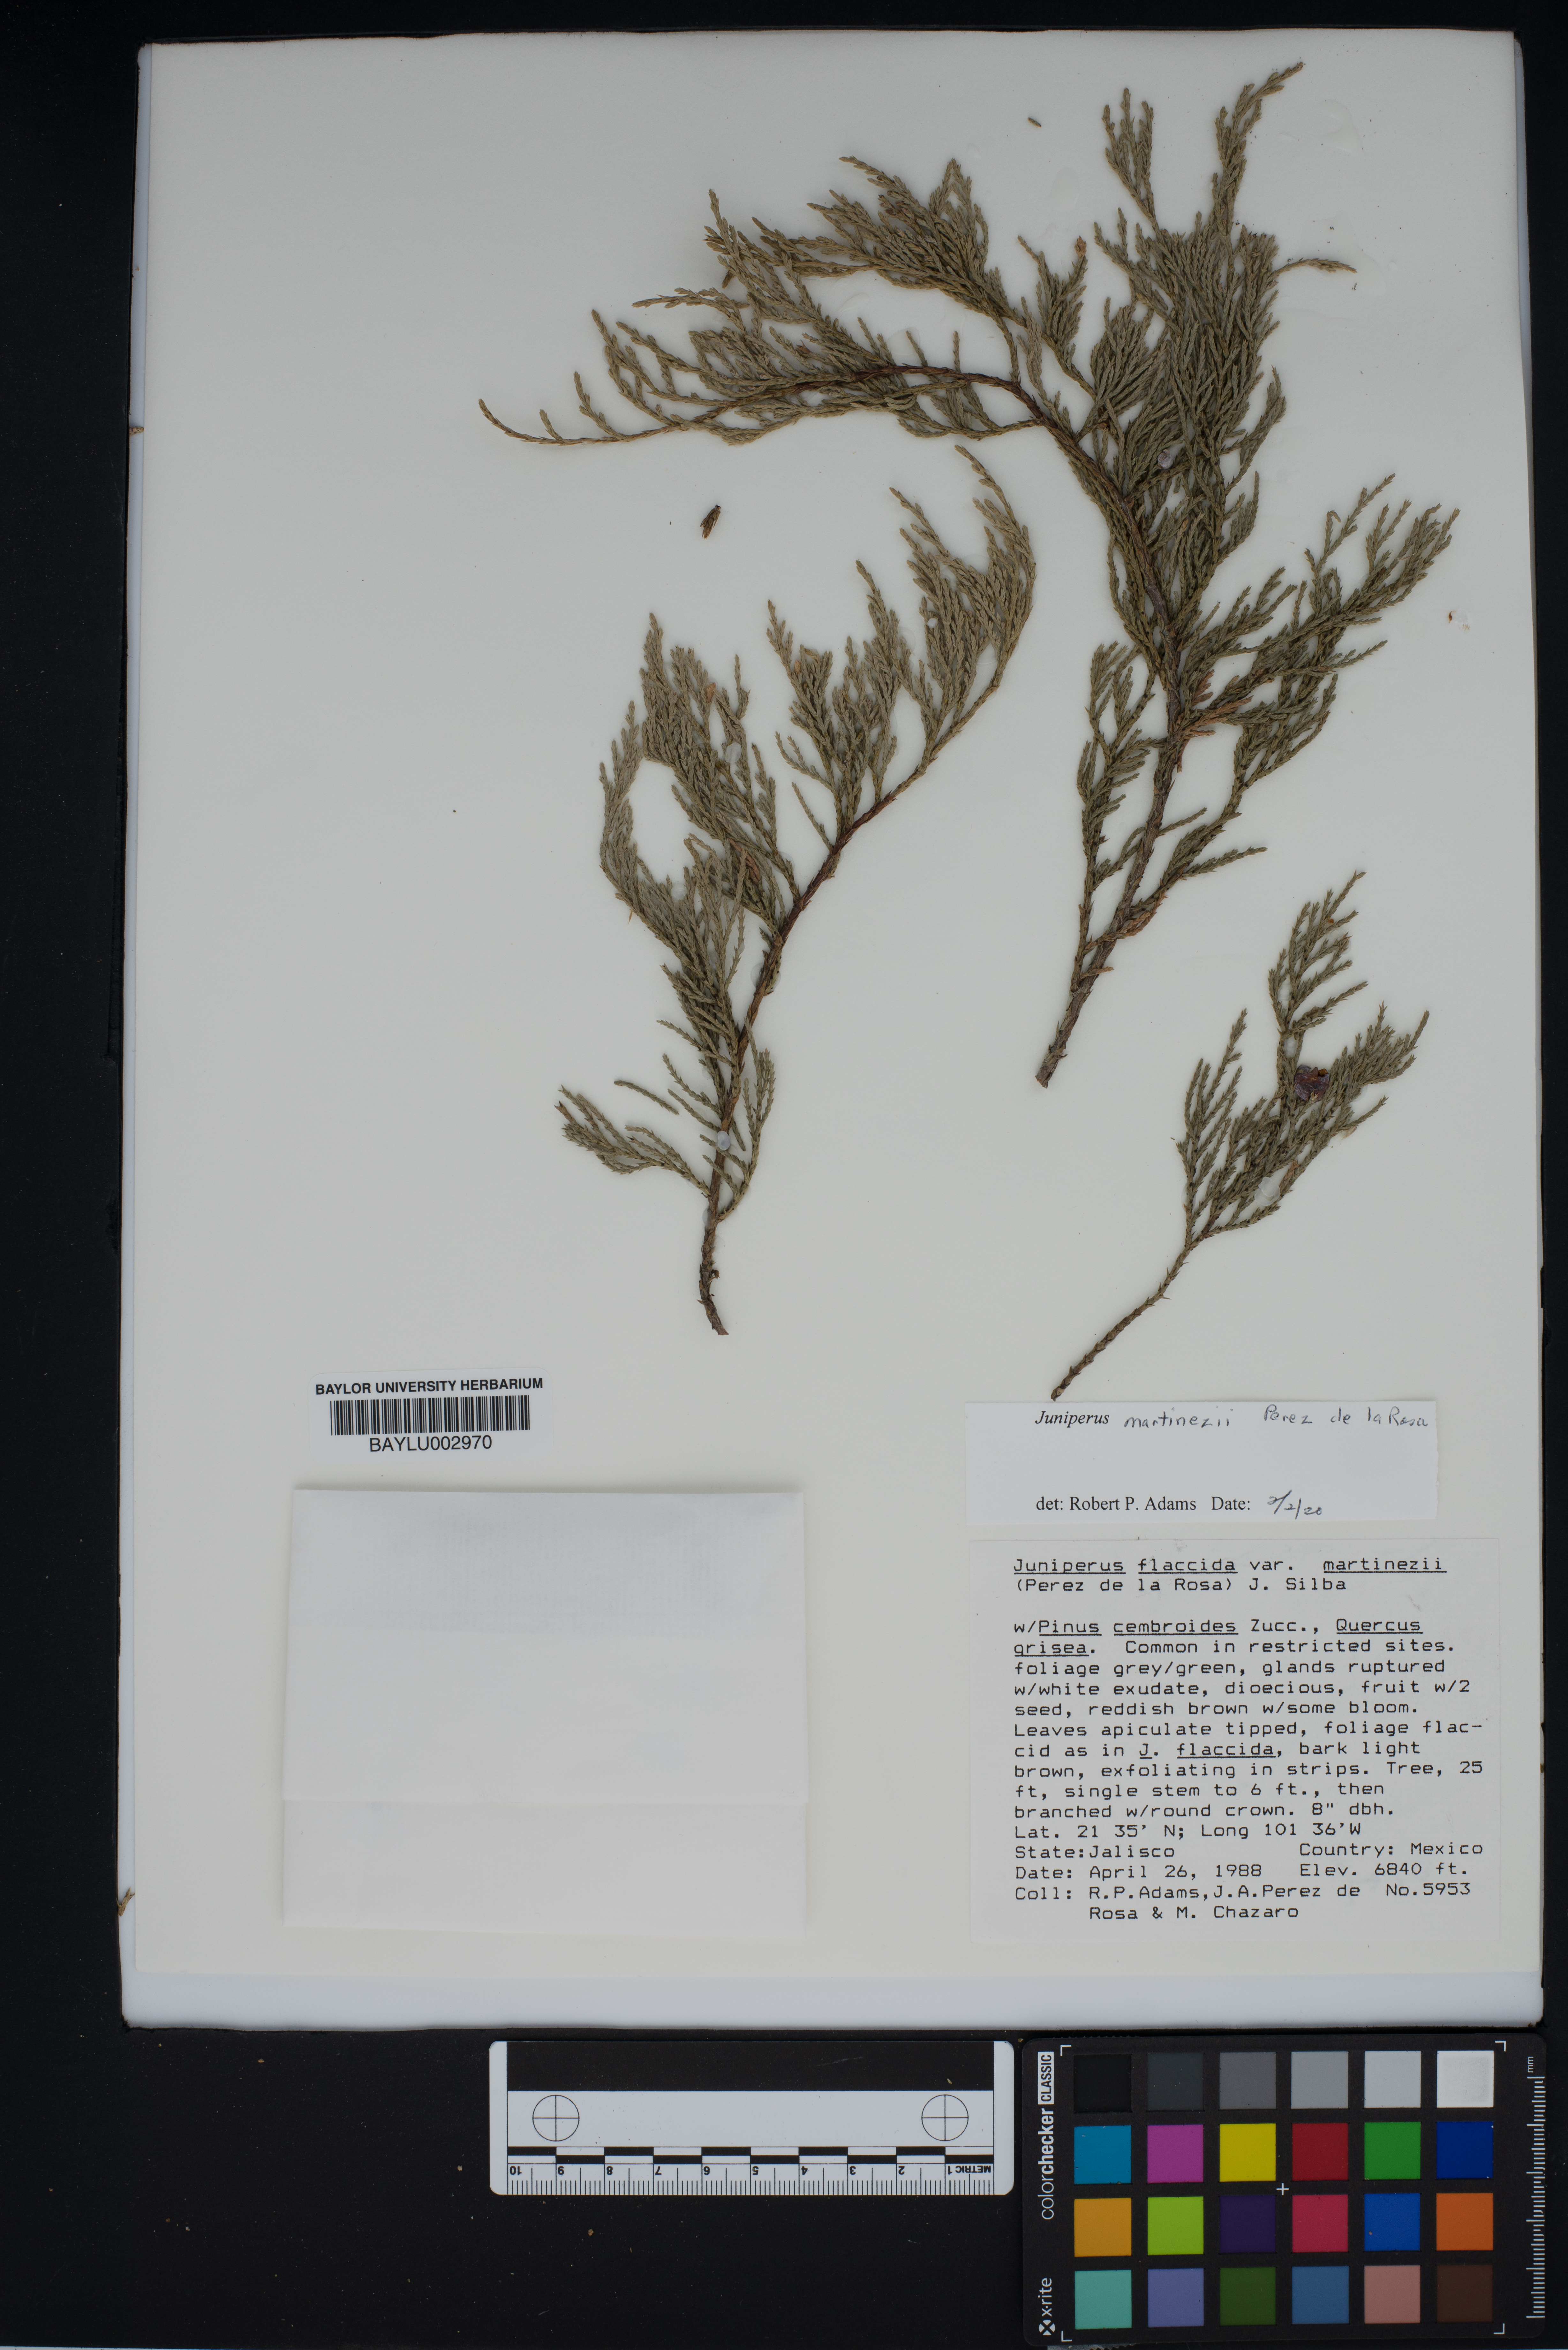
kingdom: Plantae
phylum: Tracheophyta
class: Pinopsida
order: Pinales
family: Cupressaceae
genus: Juniperus
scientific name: Juniperus flaccida
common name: Drooping juniper
